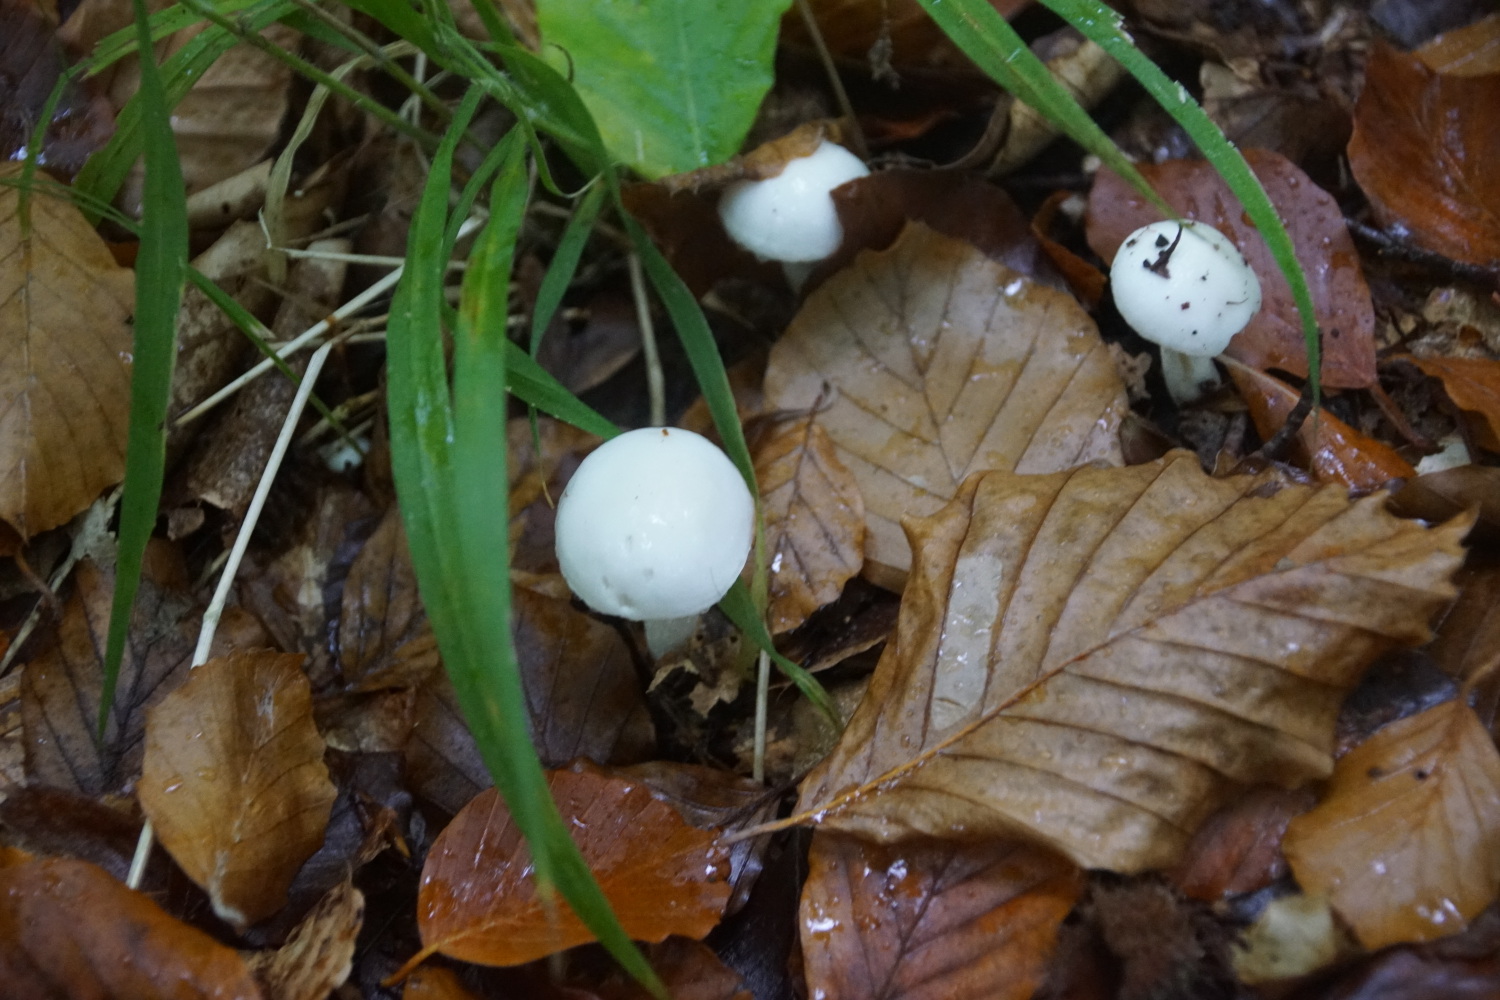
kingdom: Fungi
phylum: Basidiomycota
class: Agaricomycetes
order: Agaricales
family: Hygrophoraceae
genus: Hygrophorus
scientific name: Hygrophorus eburneus
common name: elfenbens-sneglehat
